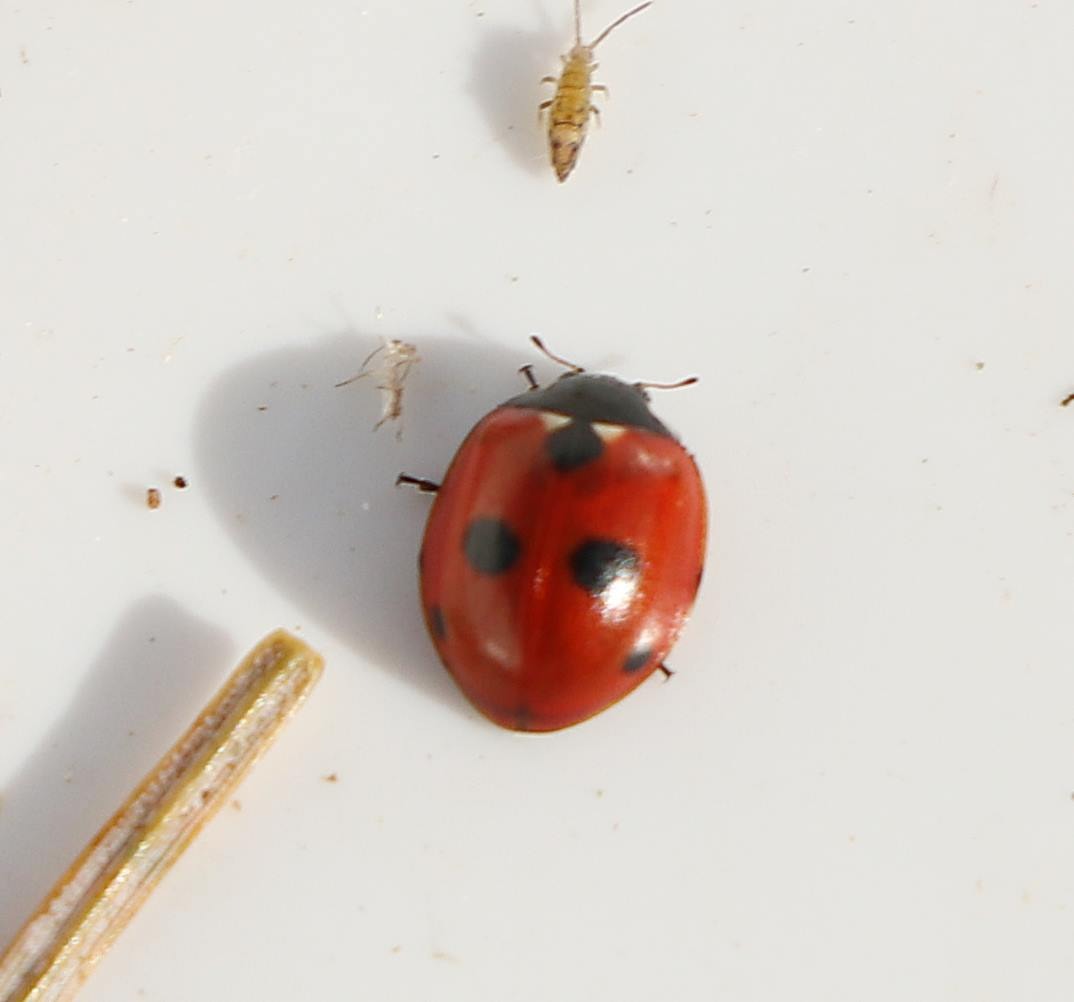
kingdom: Animalia
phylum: Arthropoda
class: Insecta
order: Coleoptera
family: Coccinellidae
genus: Coccinella
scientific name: Coccinella quinquepunctata
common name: Femplettet mariehøne
